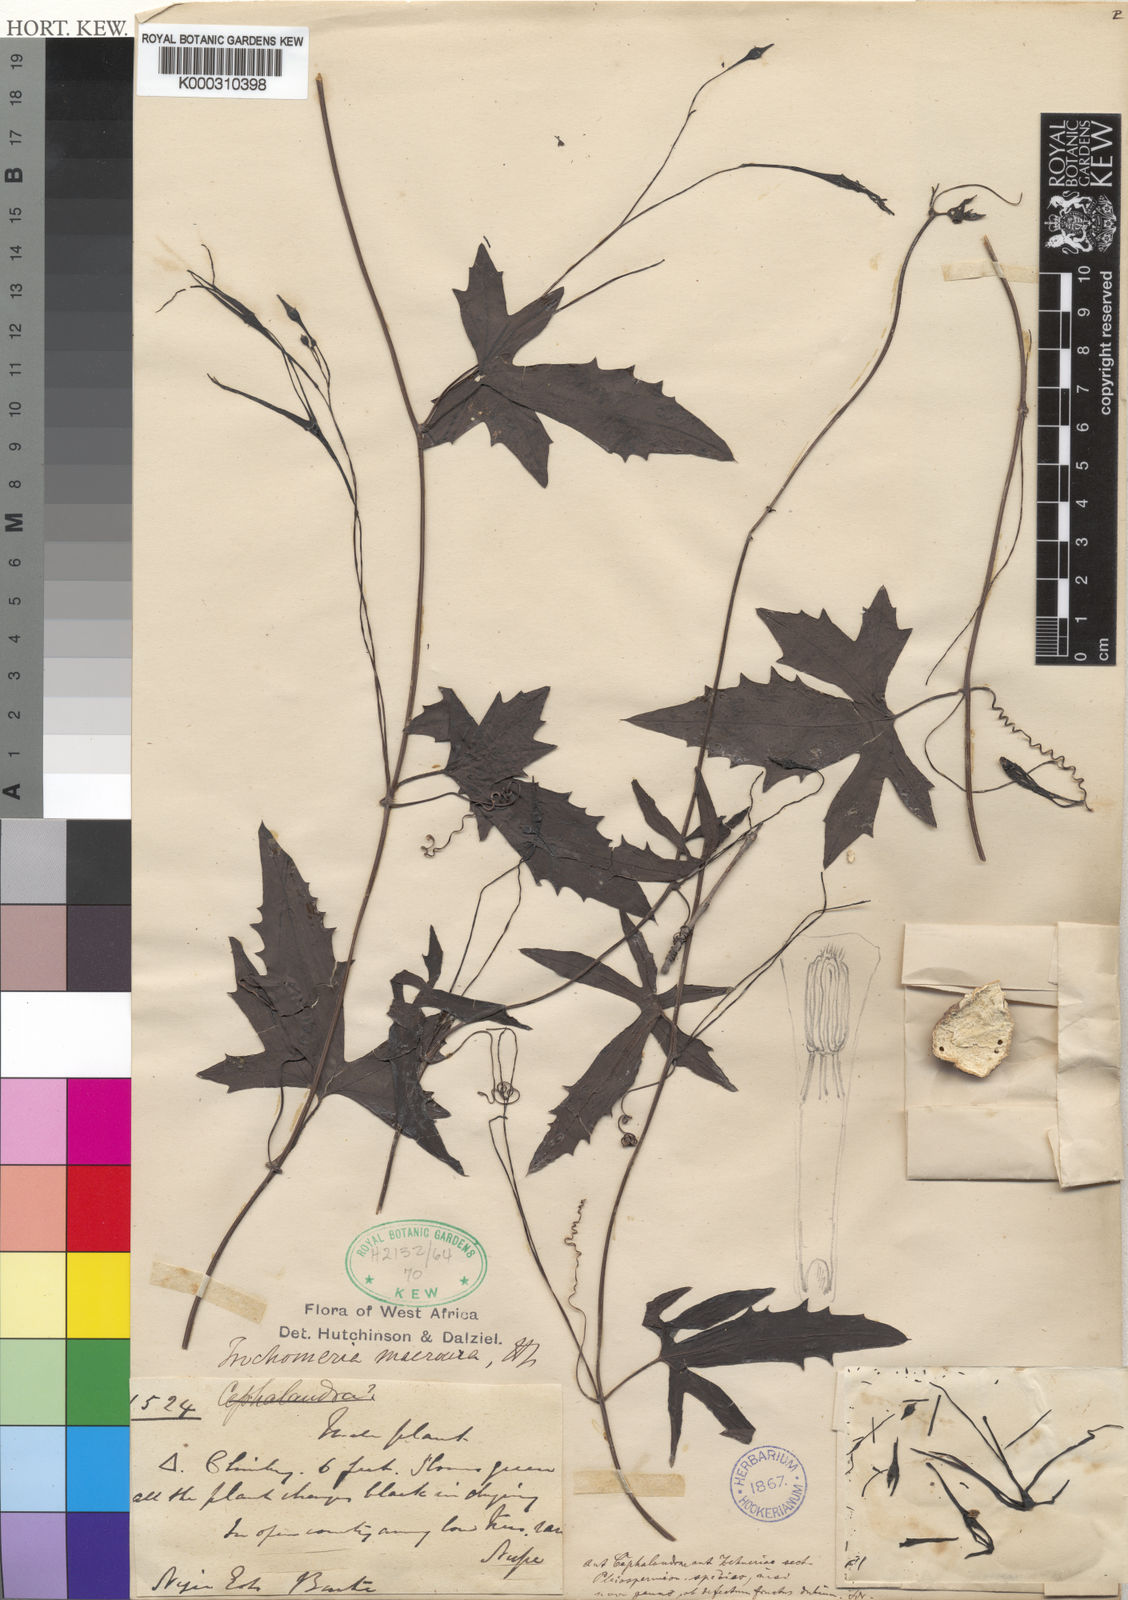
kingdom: Plantae
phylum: Tracheophyta
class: Magnoliopsida
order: Cucurbitales
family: Cucurbitaceae
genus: Trochomeria
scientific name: Trochomeria macrocarpa
